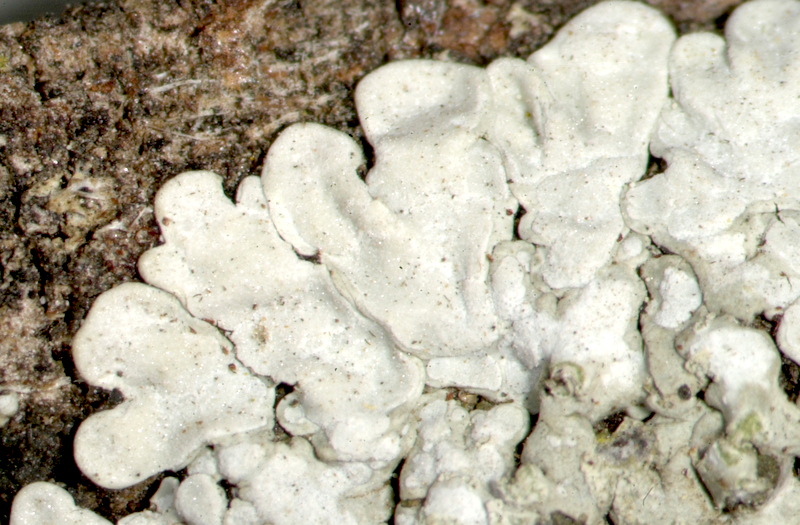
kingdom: Fungi
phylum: Ascomycota
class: Lecanoromycetes
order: Caliciales
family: Caliciaceae
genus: Pyxine
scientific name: Pyxine cocoes
